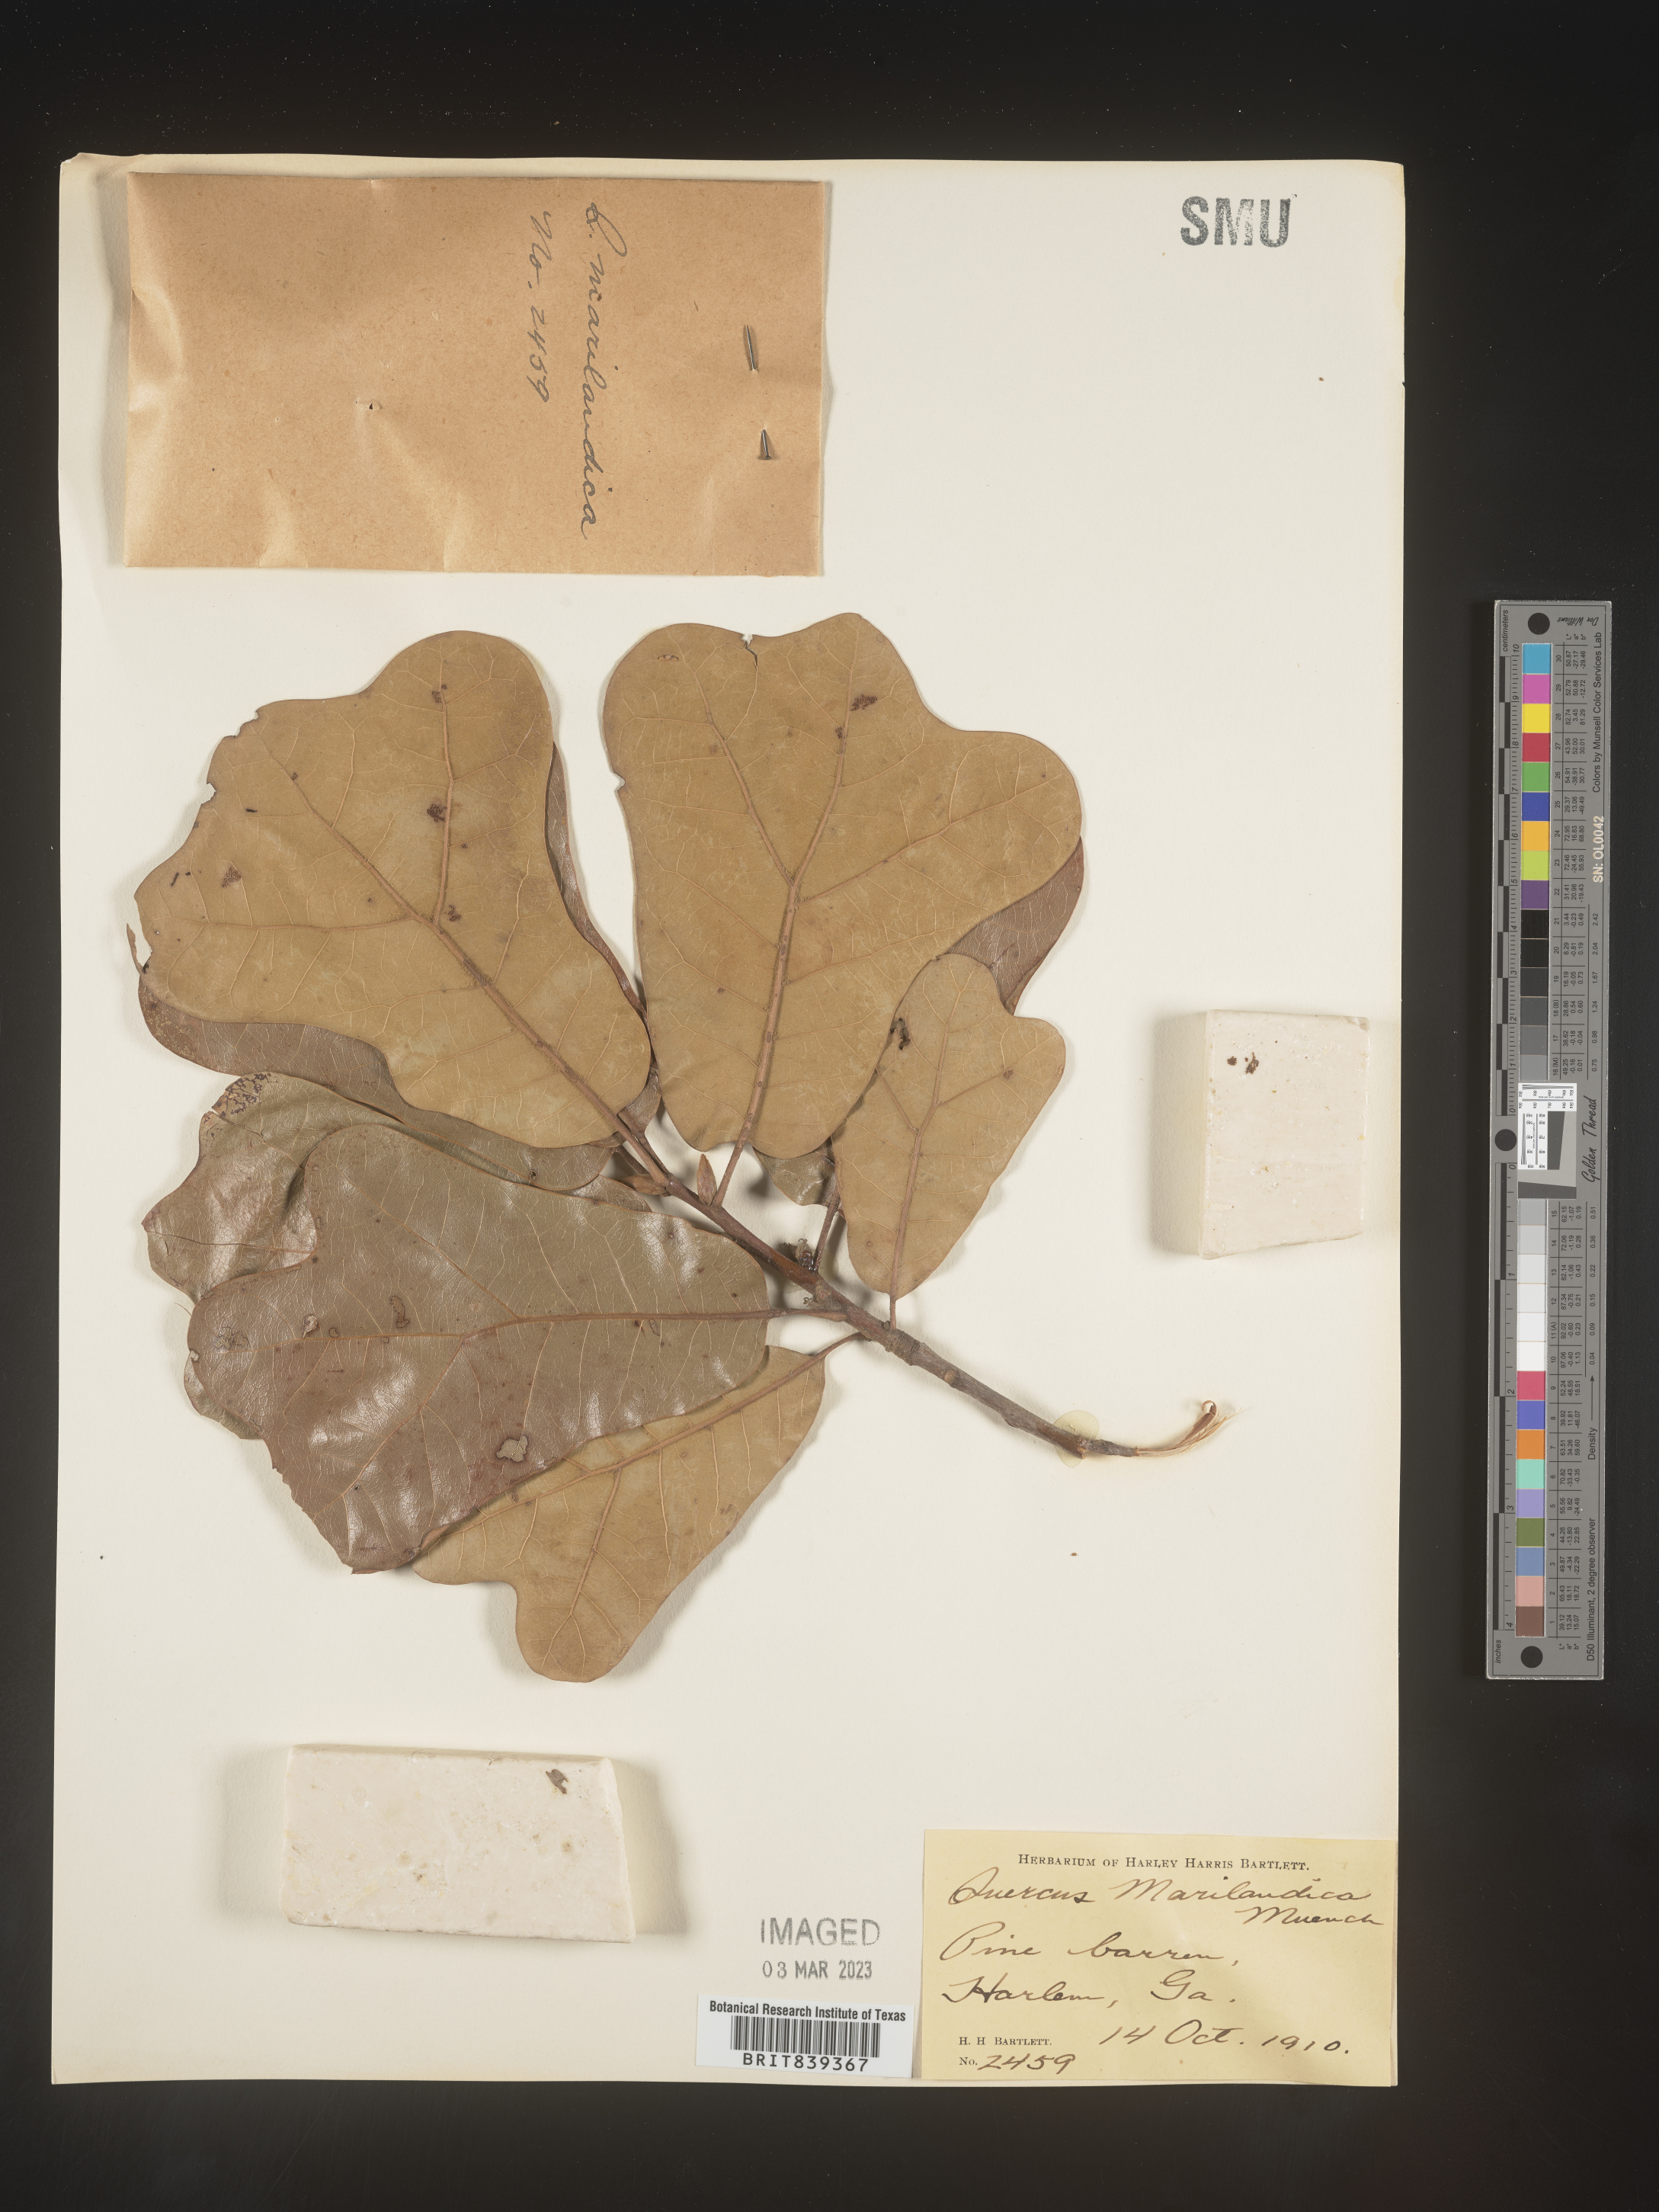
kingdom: Plantae
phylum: Tracheophyta
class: Magnoliopsida
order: Fagales
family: Fagaceae
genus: Quercus
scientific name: Quercus marilandica
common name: Blackjack oak
